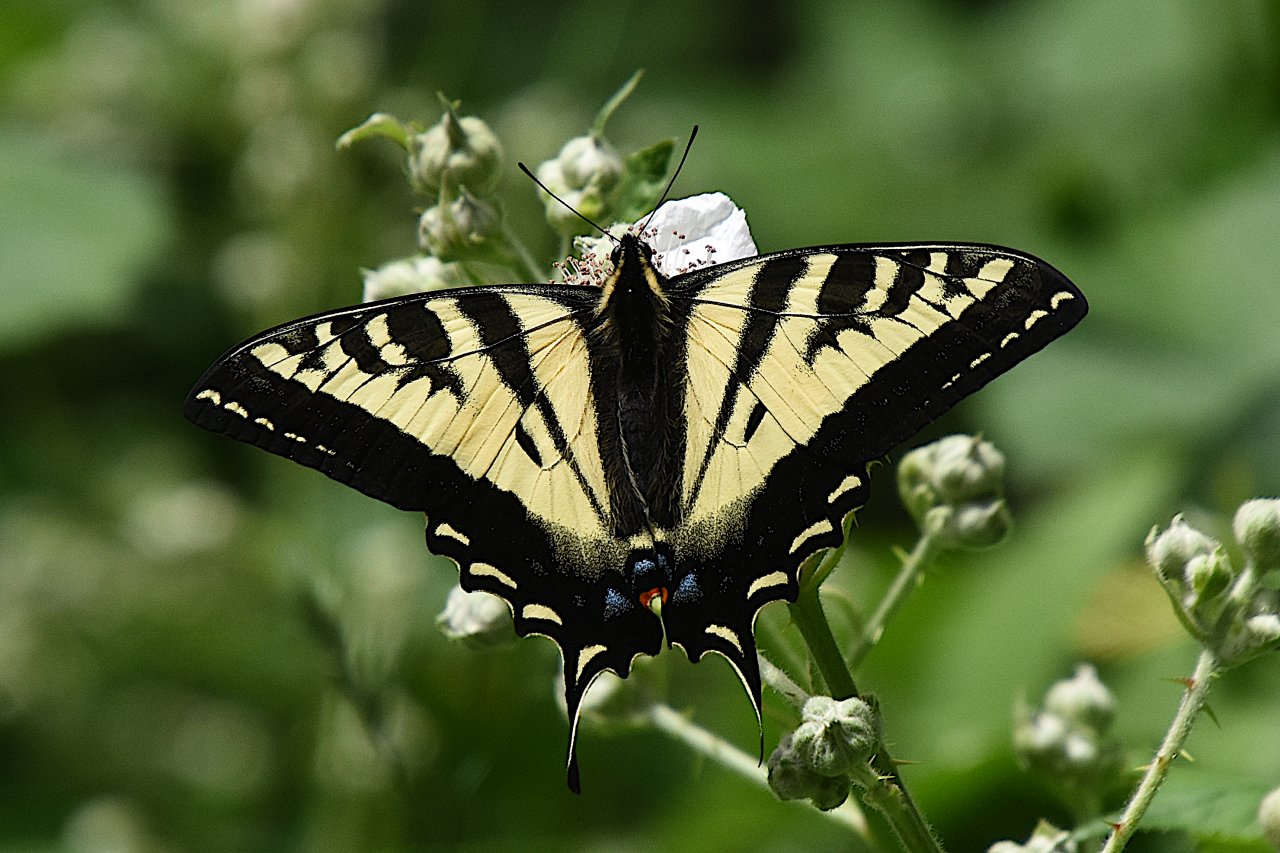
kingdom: Animalia
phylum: Arthropoda
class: Insecta
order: Lepidoptera
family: Papilionidae
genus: Pterourus
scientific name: Pterourus rutulus
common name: Western Tiger Swallowtail
